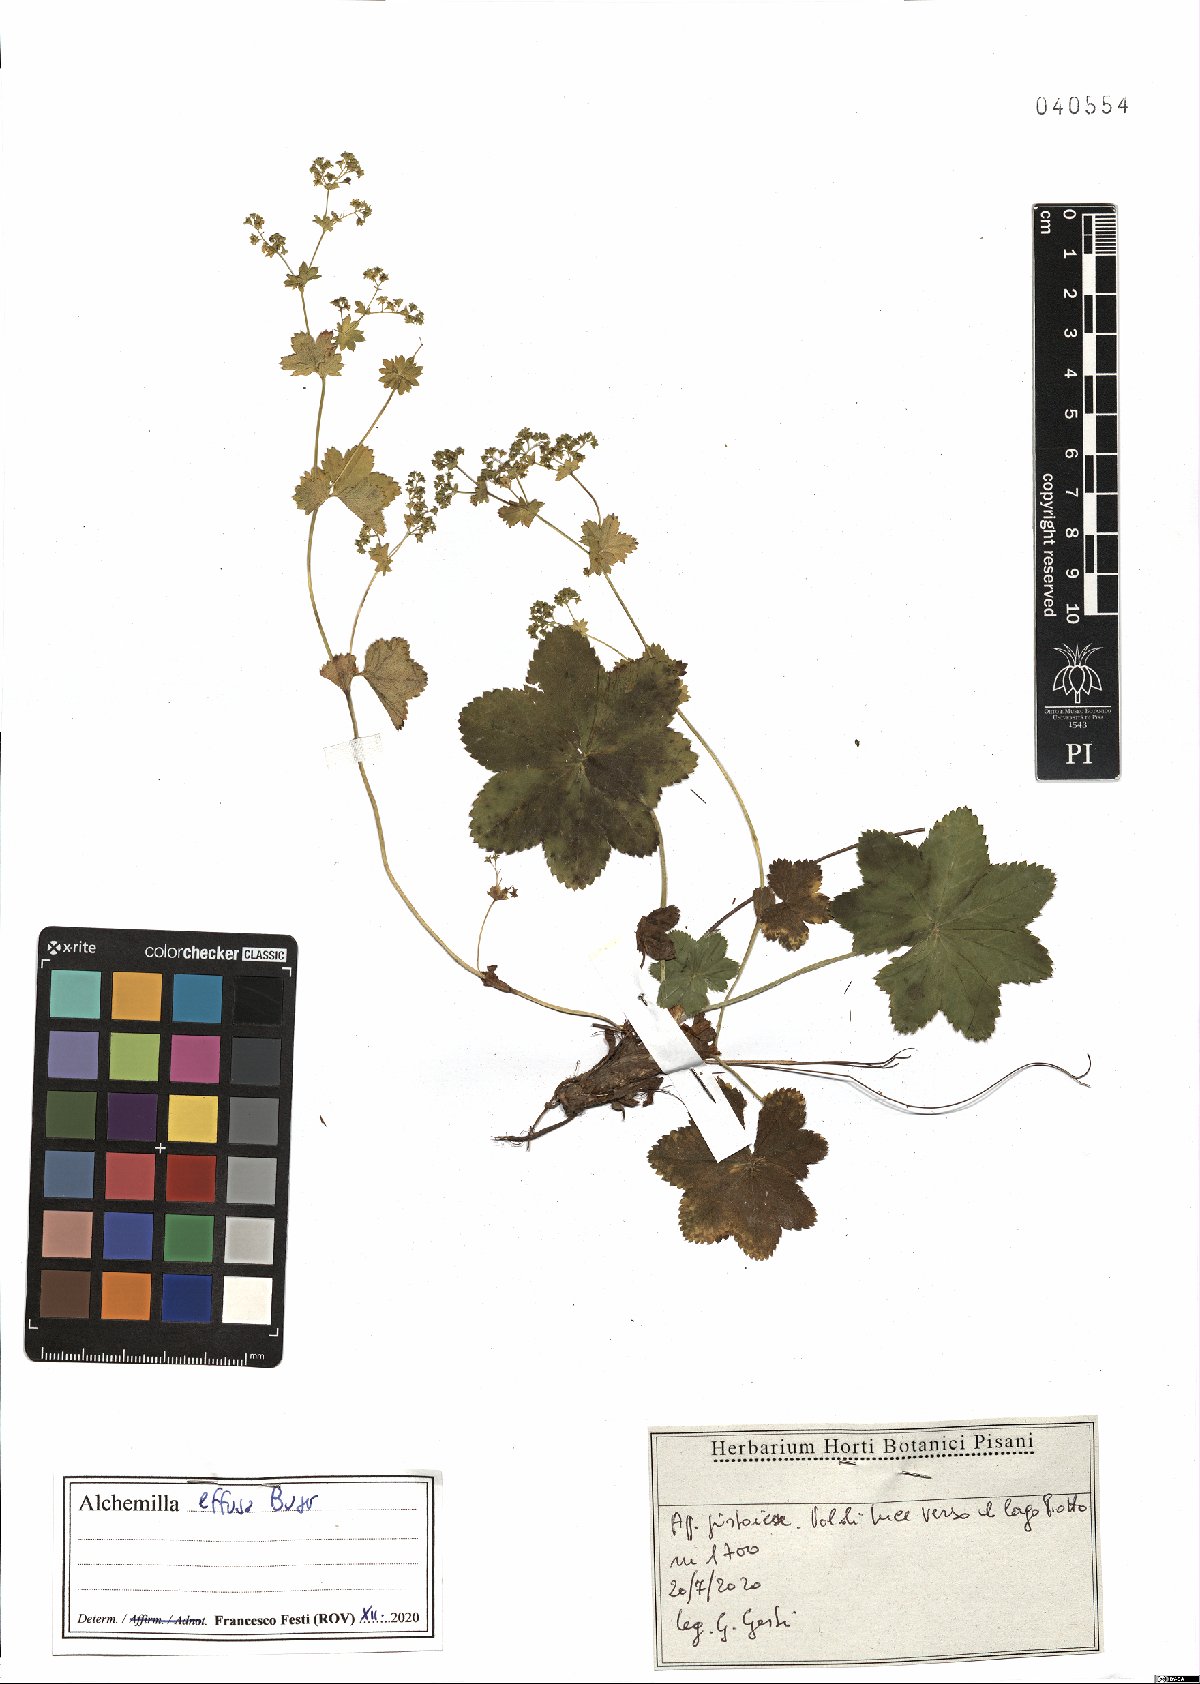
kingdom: Plantae
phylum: Tracheophyta
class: Magnoliopsida
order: Rosales
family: Rosaceae
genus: Alchemilla
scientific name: Alchemilla effusa
